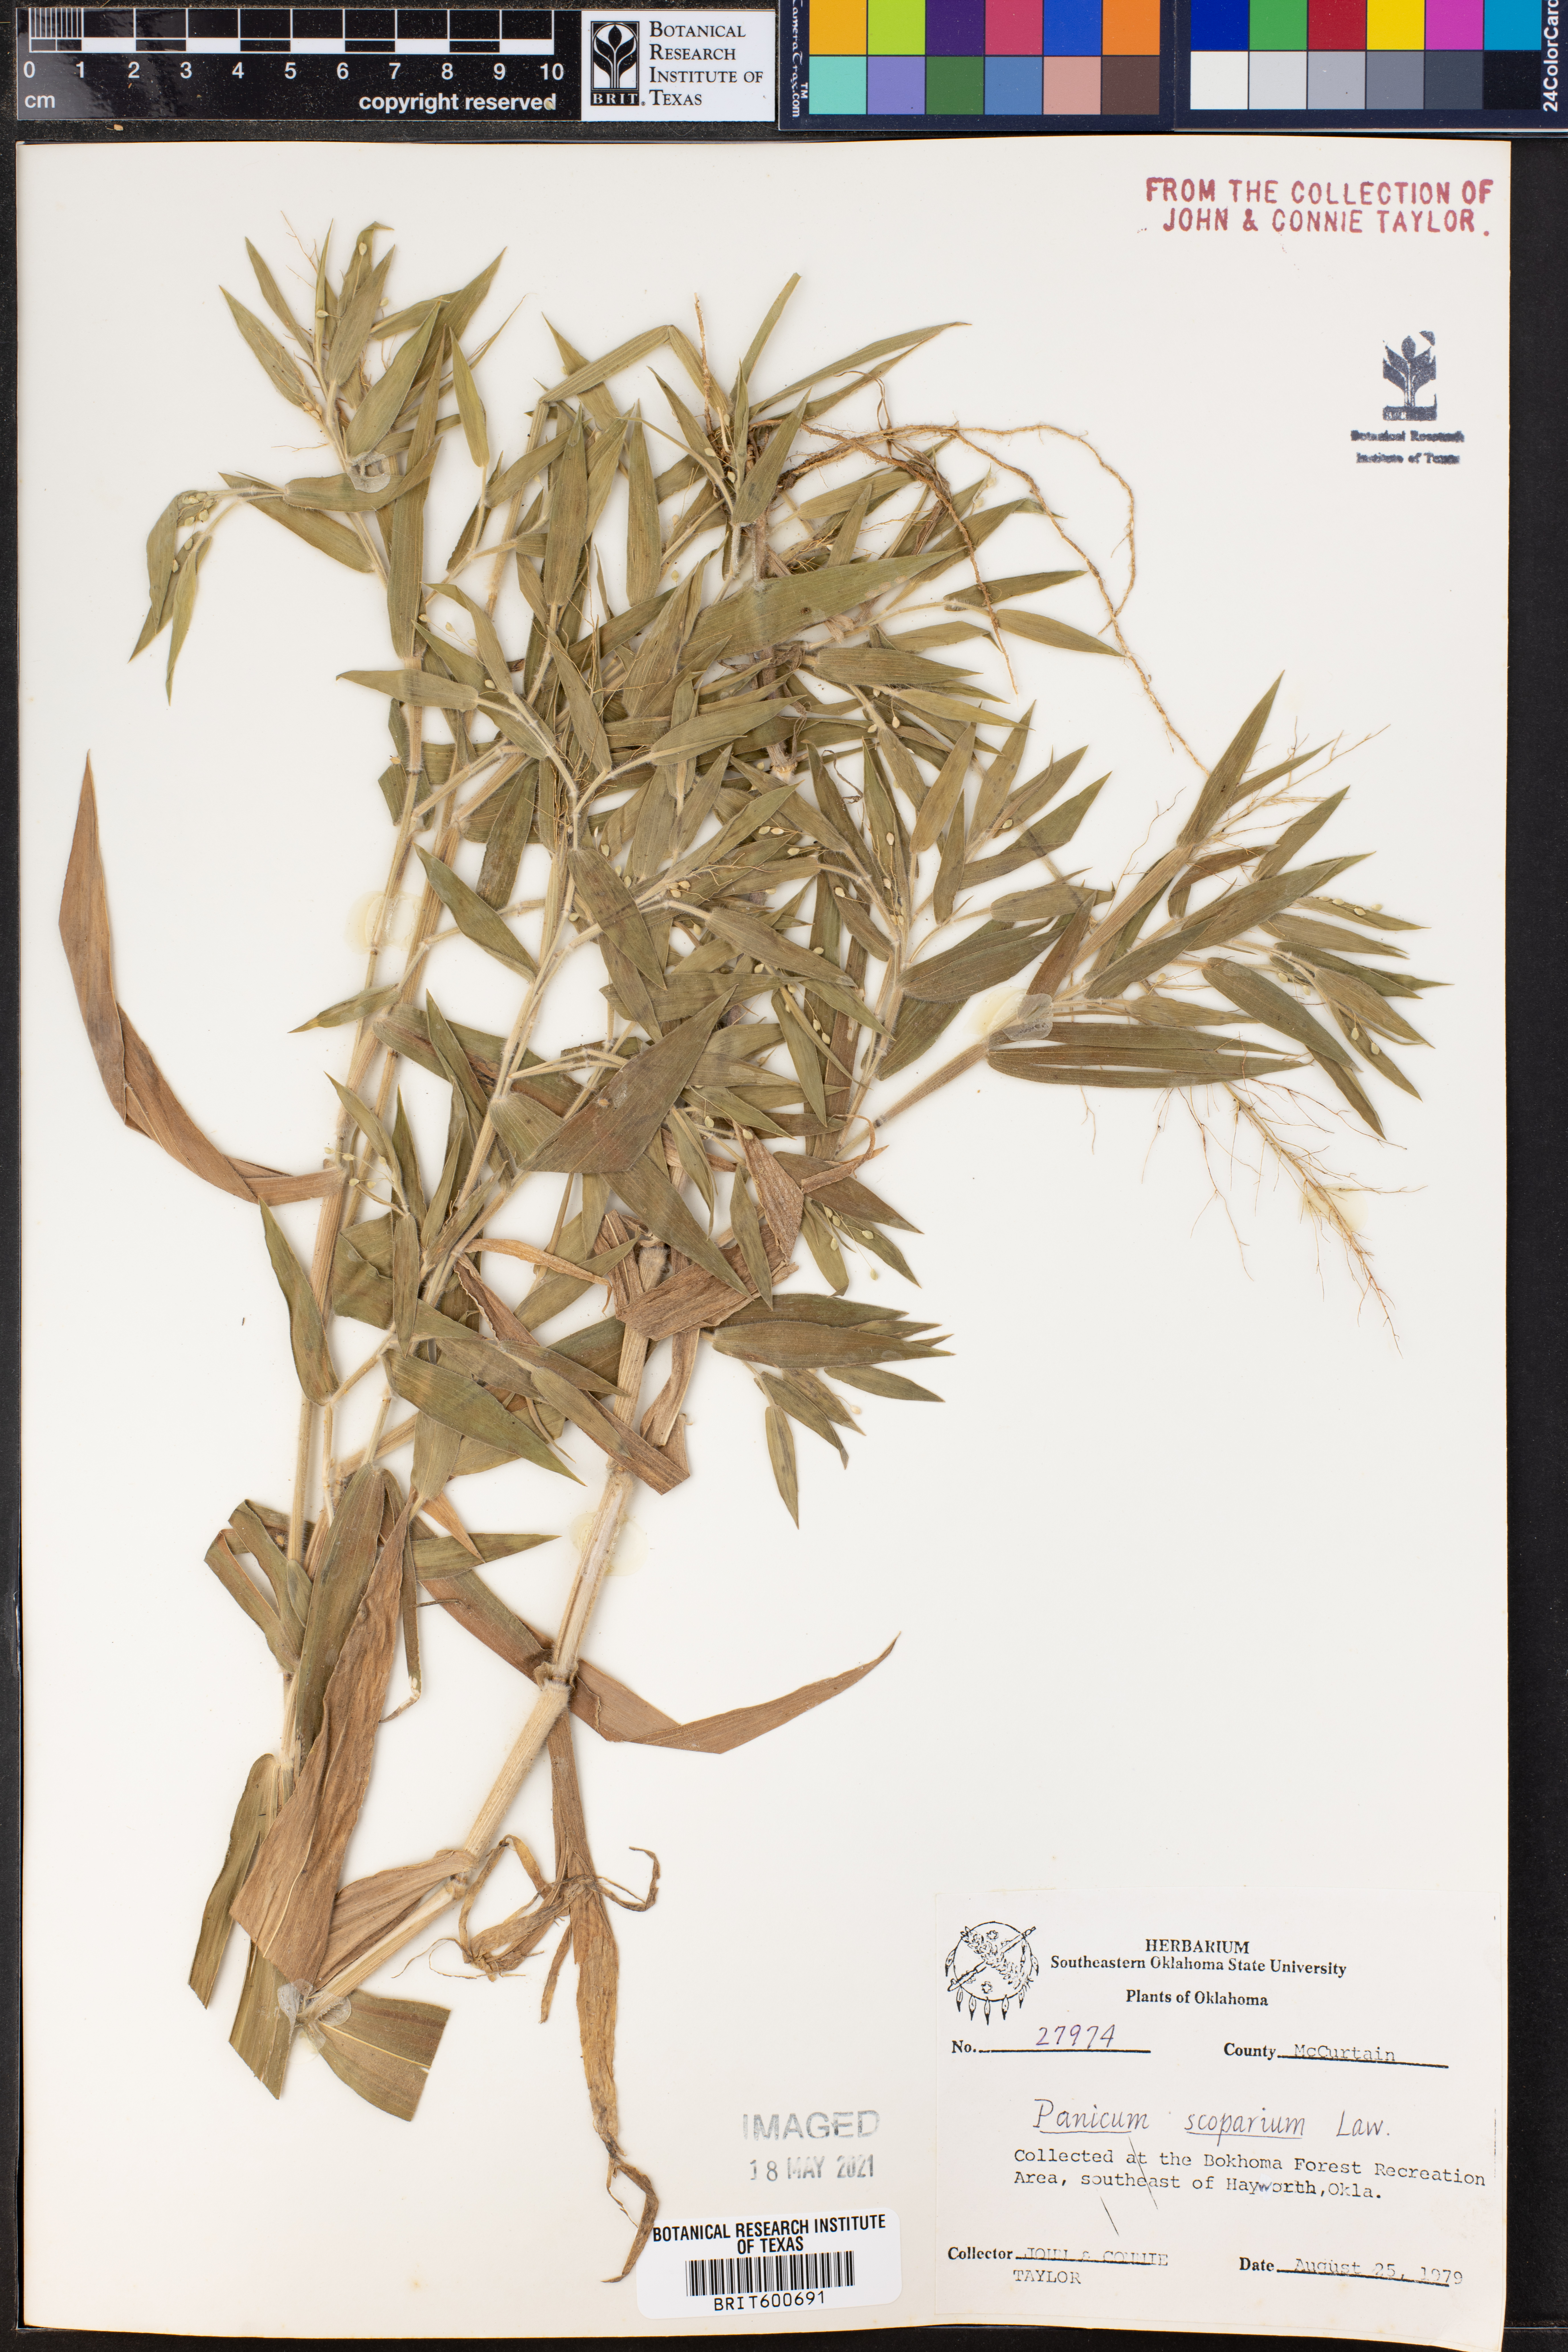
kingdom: Plantae
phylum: Tracheophyta
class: Liliopsida
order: Poales
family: Poaceae
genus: Dichanthelium
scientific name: Dichanthelium scribnerianum
